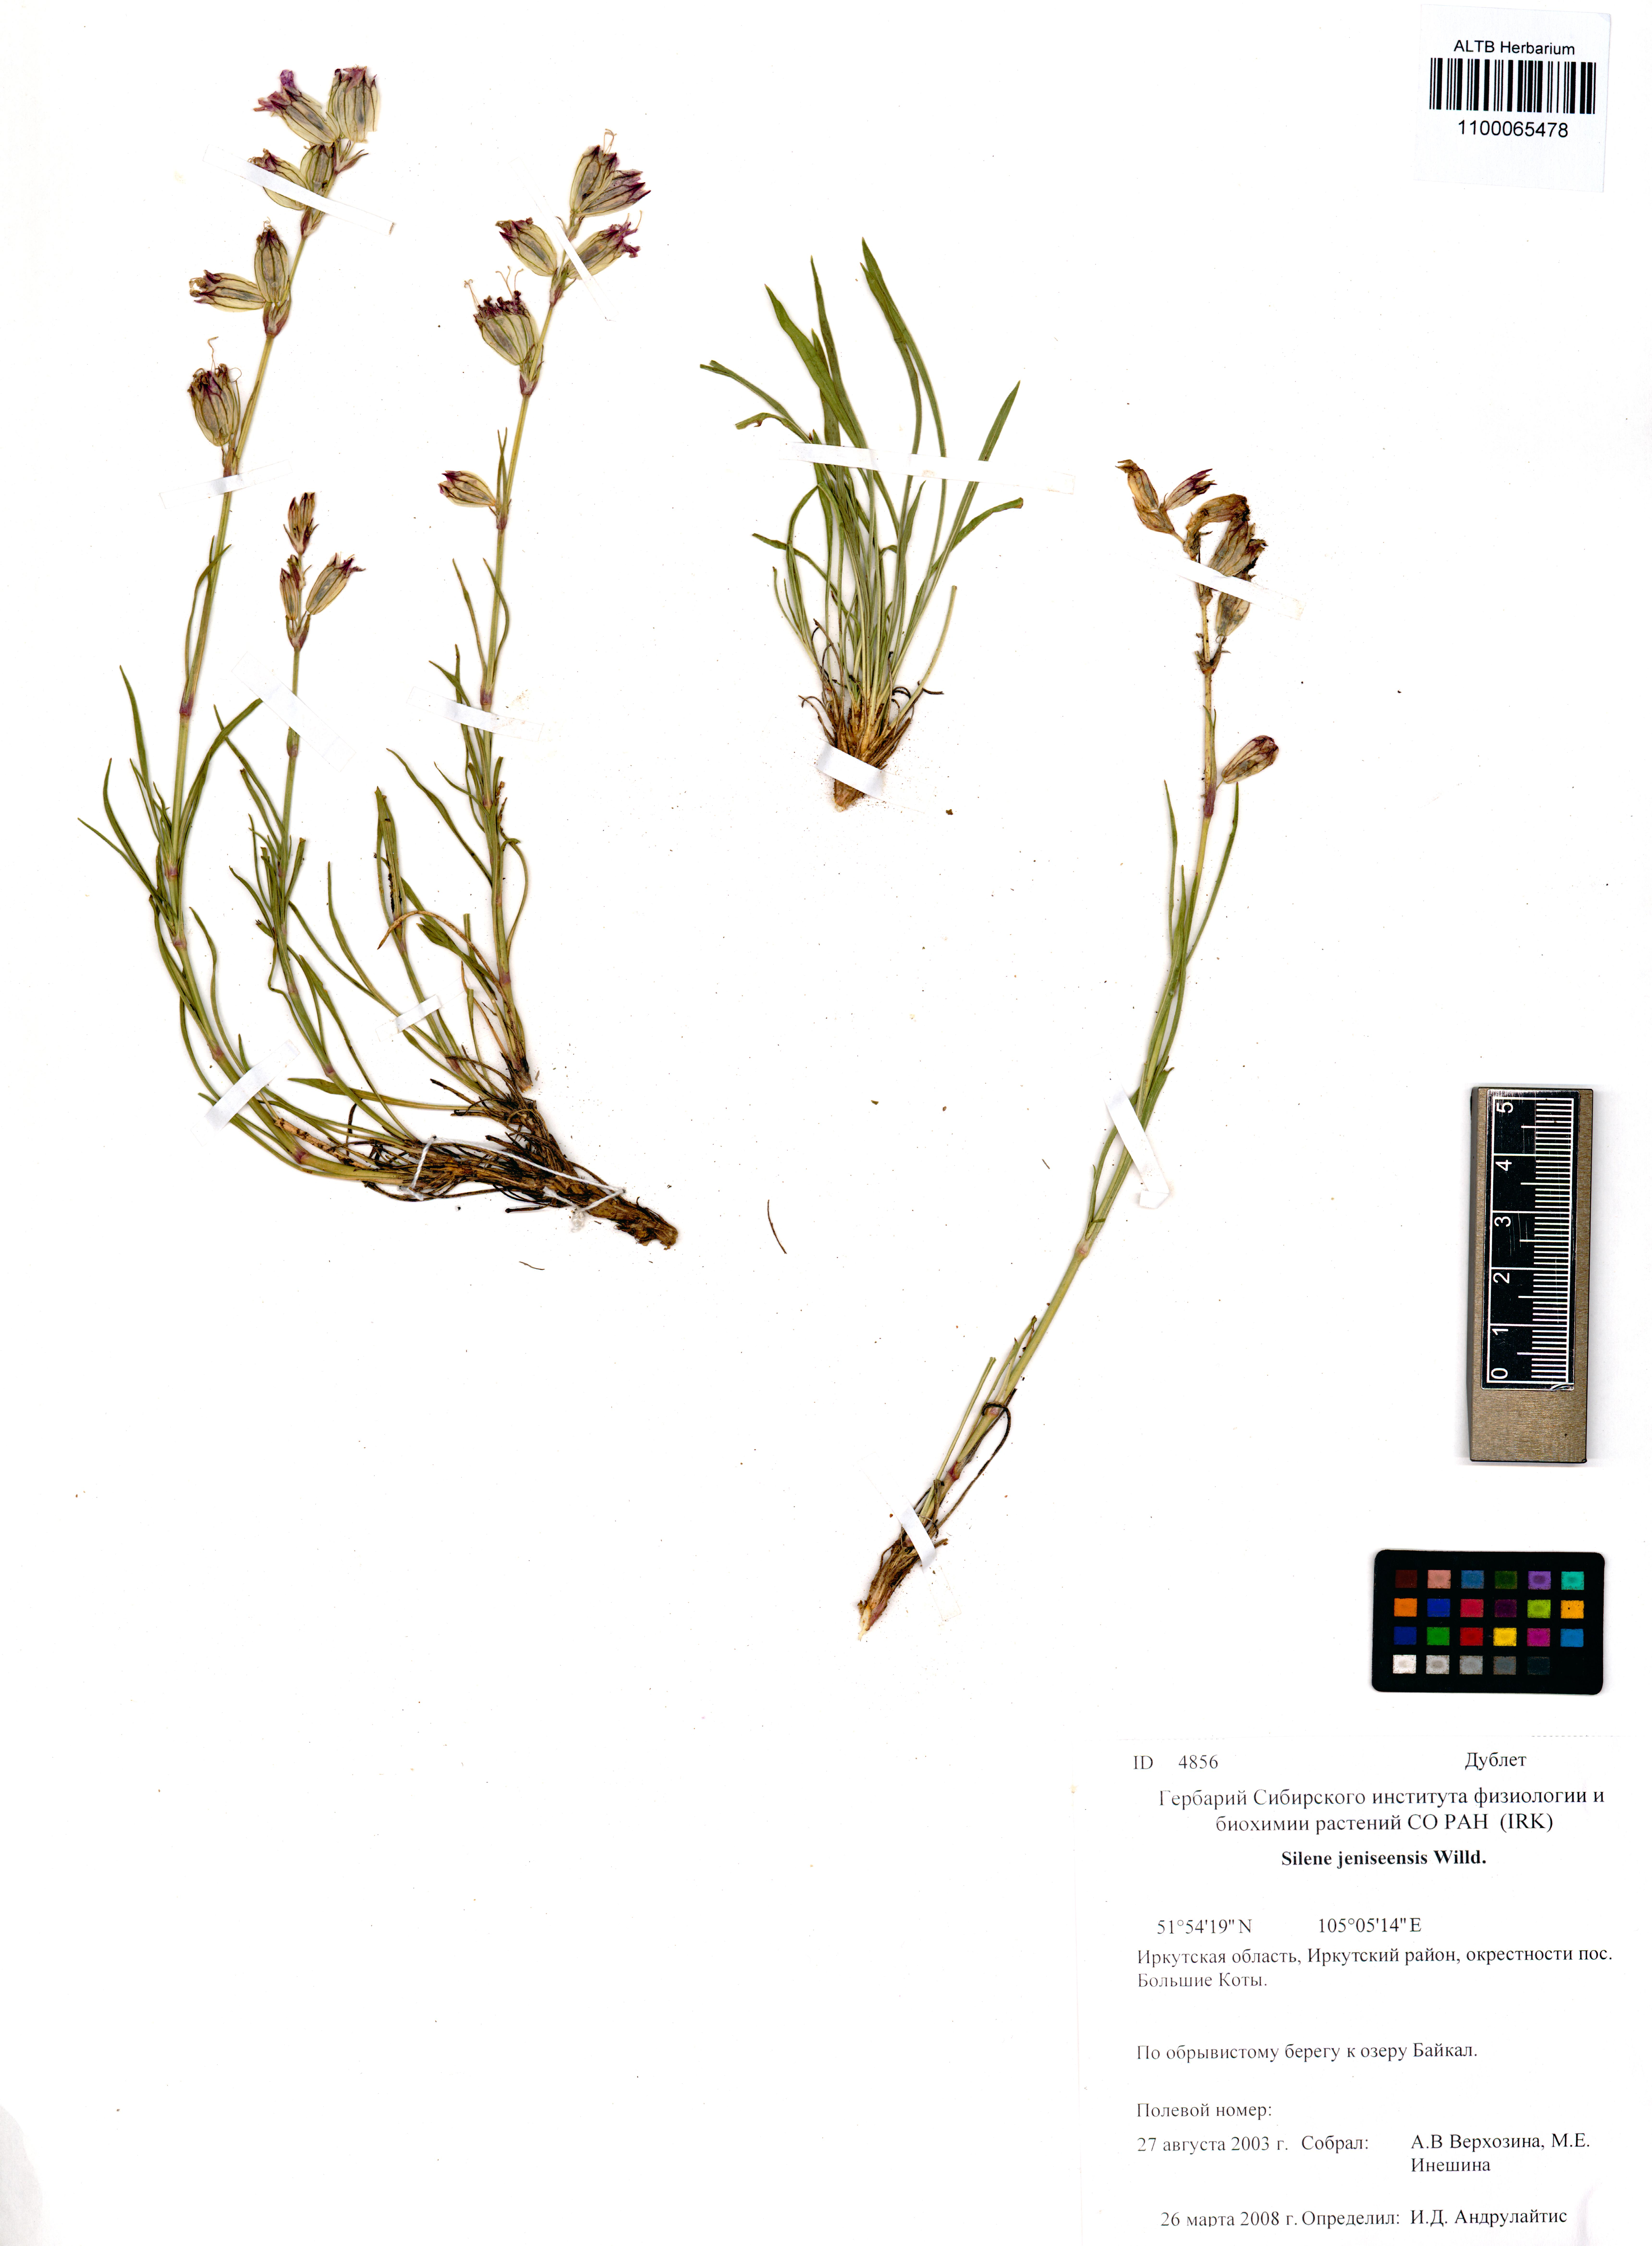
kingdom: Plantae
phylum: Tracheophyta
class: Magnoliopsida
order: Caryophyllales
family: Caryophyllaceae
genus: Silene
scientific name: Silene jeniseensis
